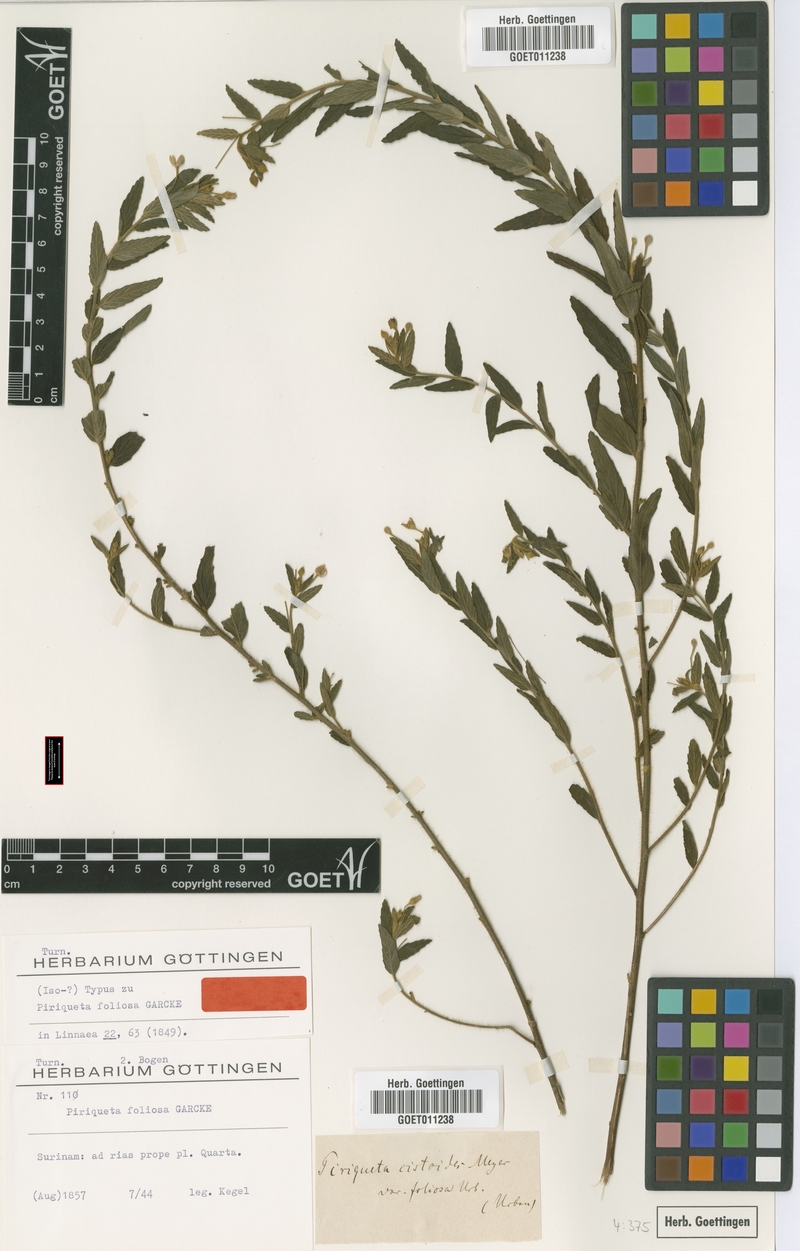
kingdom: Plantae
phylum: Tracheophyta
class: Magnoliopsida
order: Malpighiales
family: Turneraceae
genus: Piriqueta
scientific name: Piriqueta cistoides
